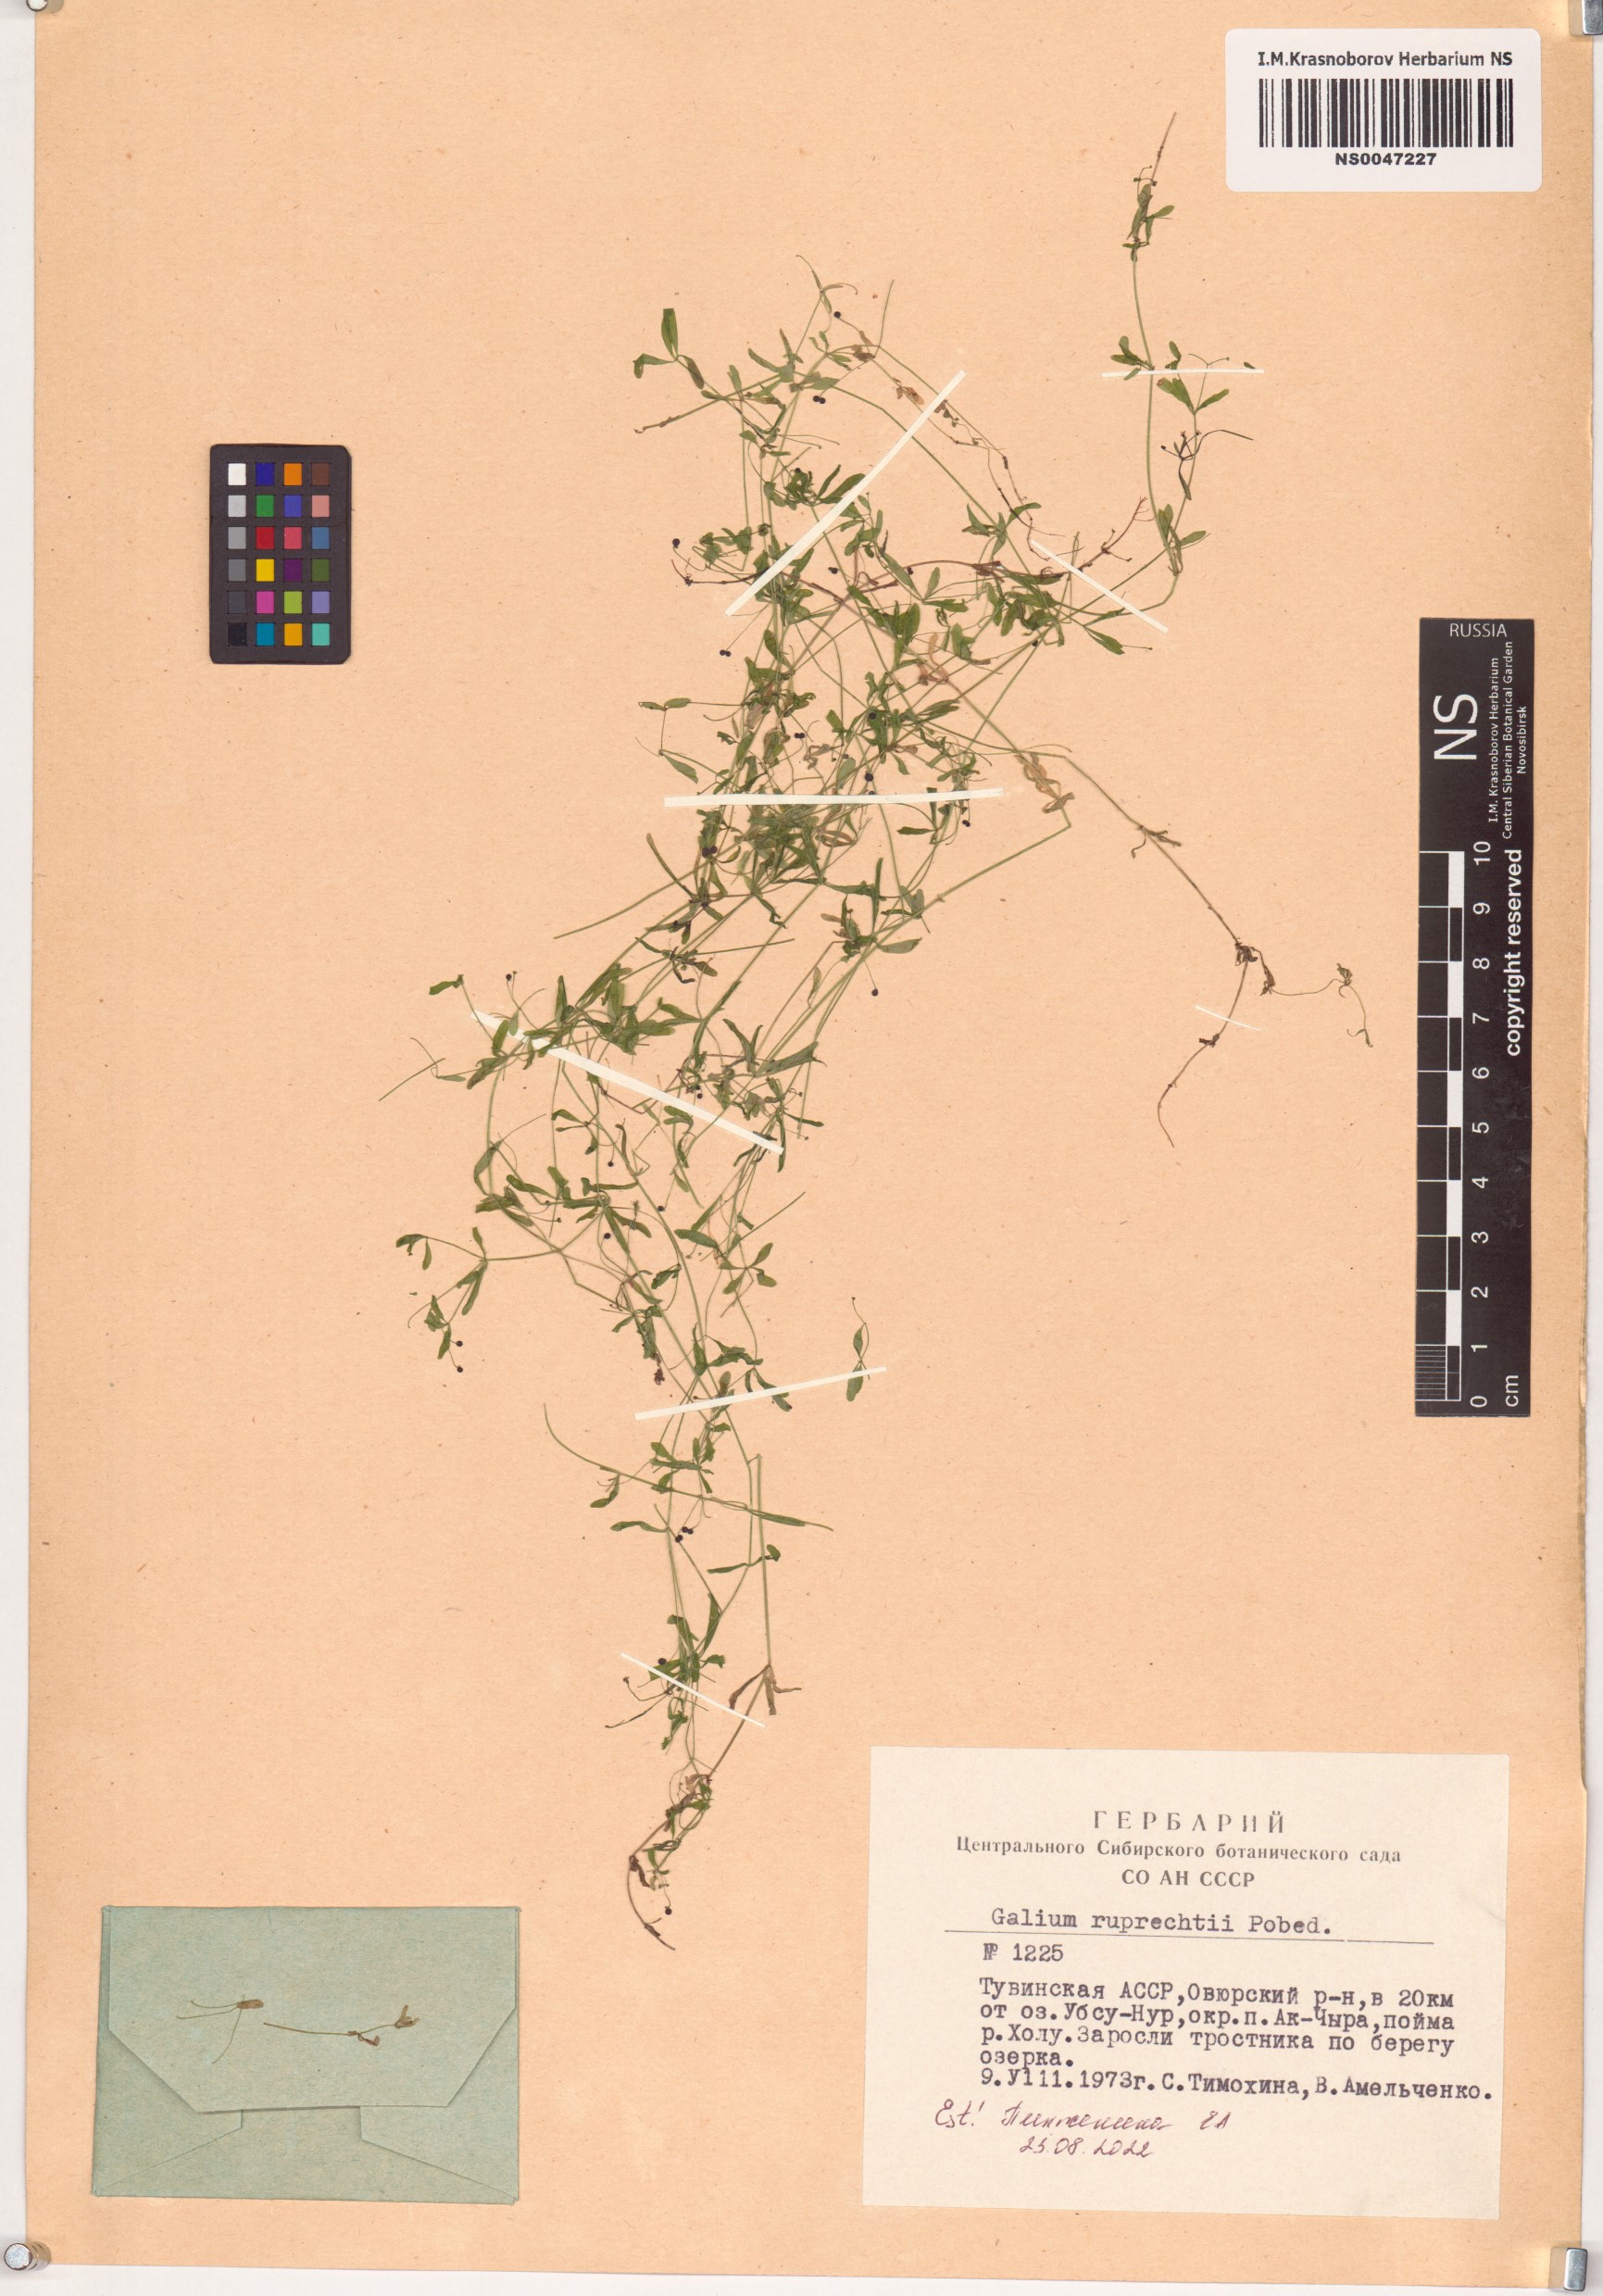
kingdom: Plantae
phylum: Tracheophyta
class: Magnoliopsida
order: Gentianales
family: Rubiaceae
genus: Galium
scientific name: Galium trifidum
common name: Small bedstraw
